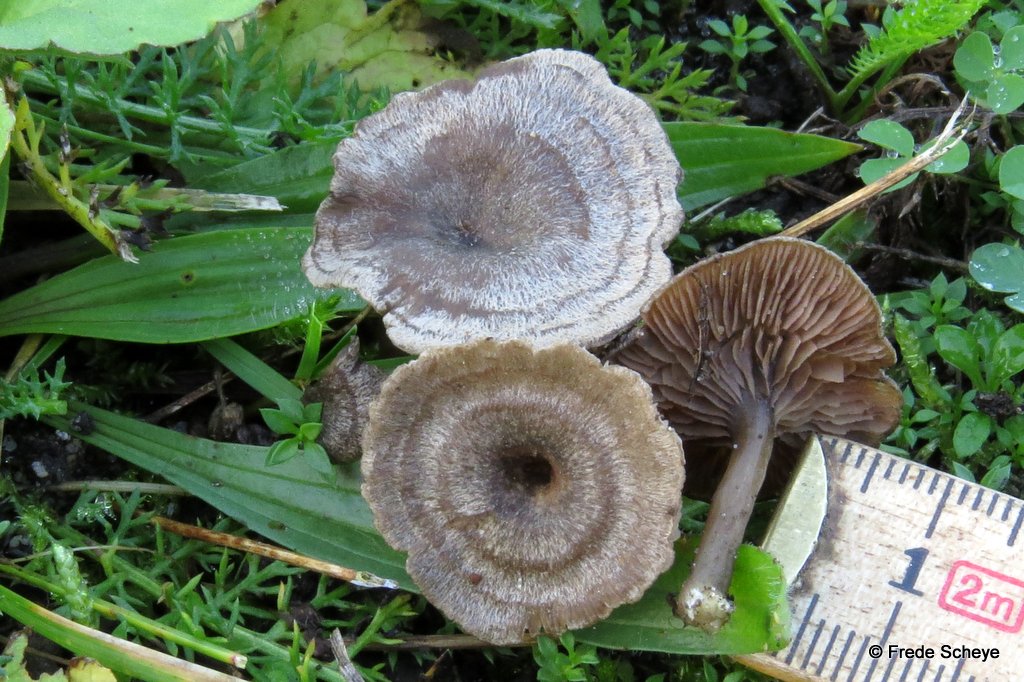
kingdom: Fungi
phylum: Basidiomycota
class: Agaricomycetes
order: Agaricales
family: Entolomataceae
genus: Entoloma
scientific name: Entoloma undatum
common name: bæltet rødblad
